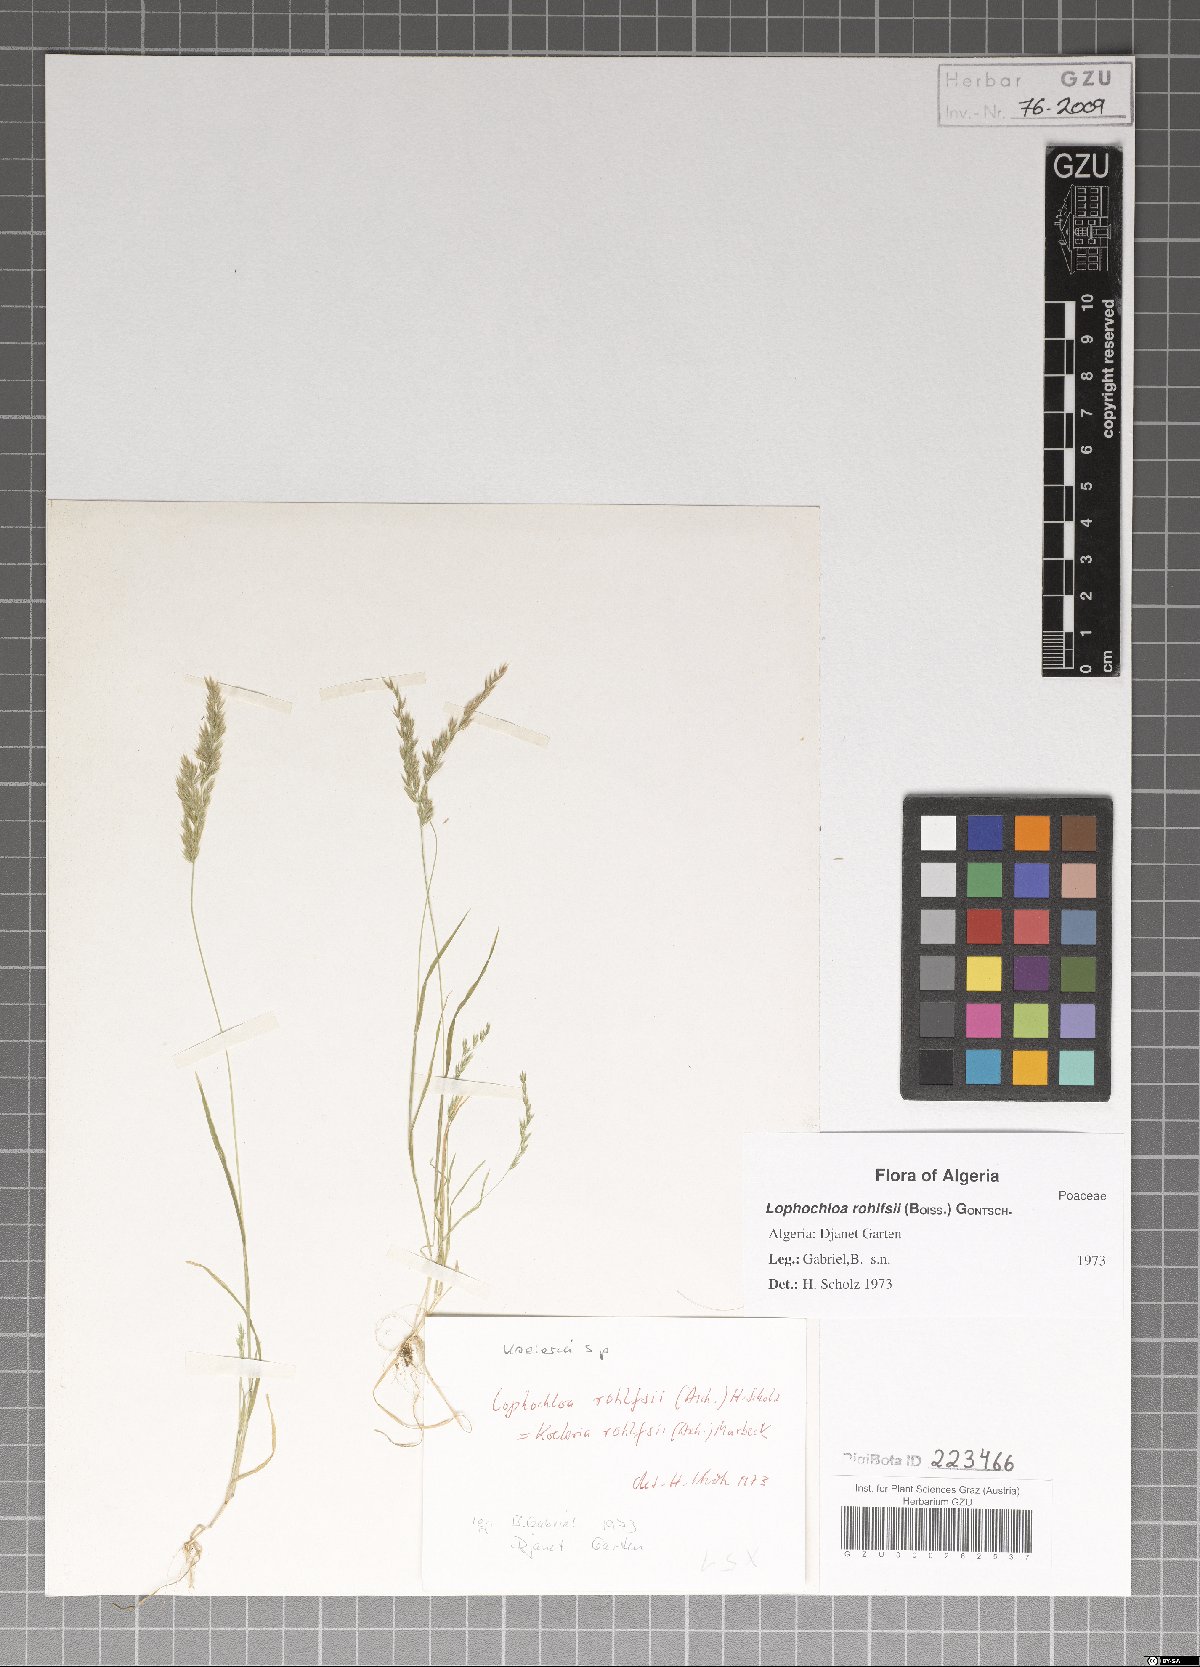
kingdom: Plantae
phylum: Tracheophyta
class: Liliopsida
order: Poales
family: Poaceae
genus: Rostraria
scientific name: Rostraria rohlfsii
